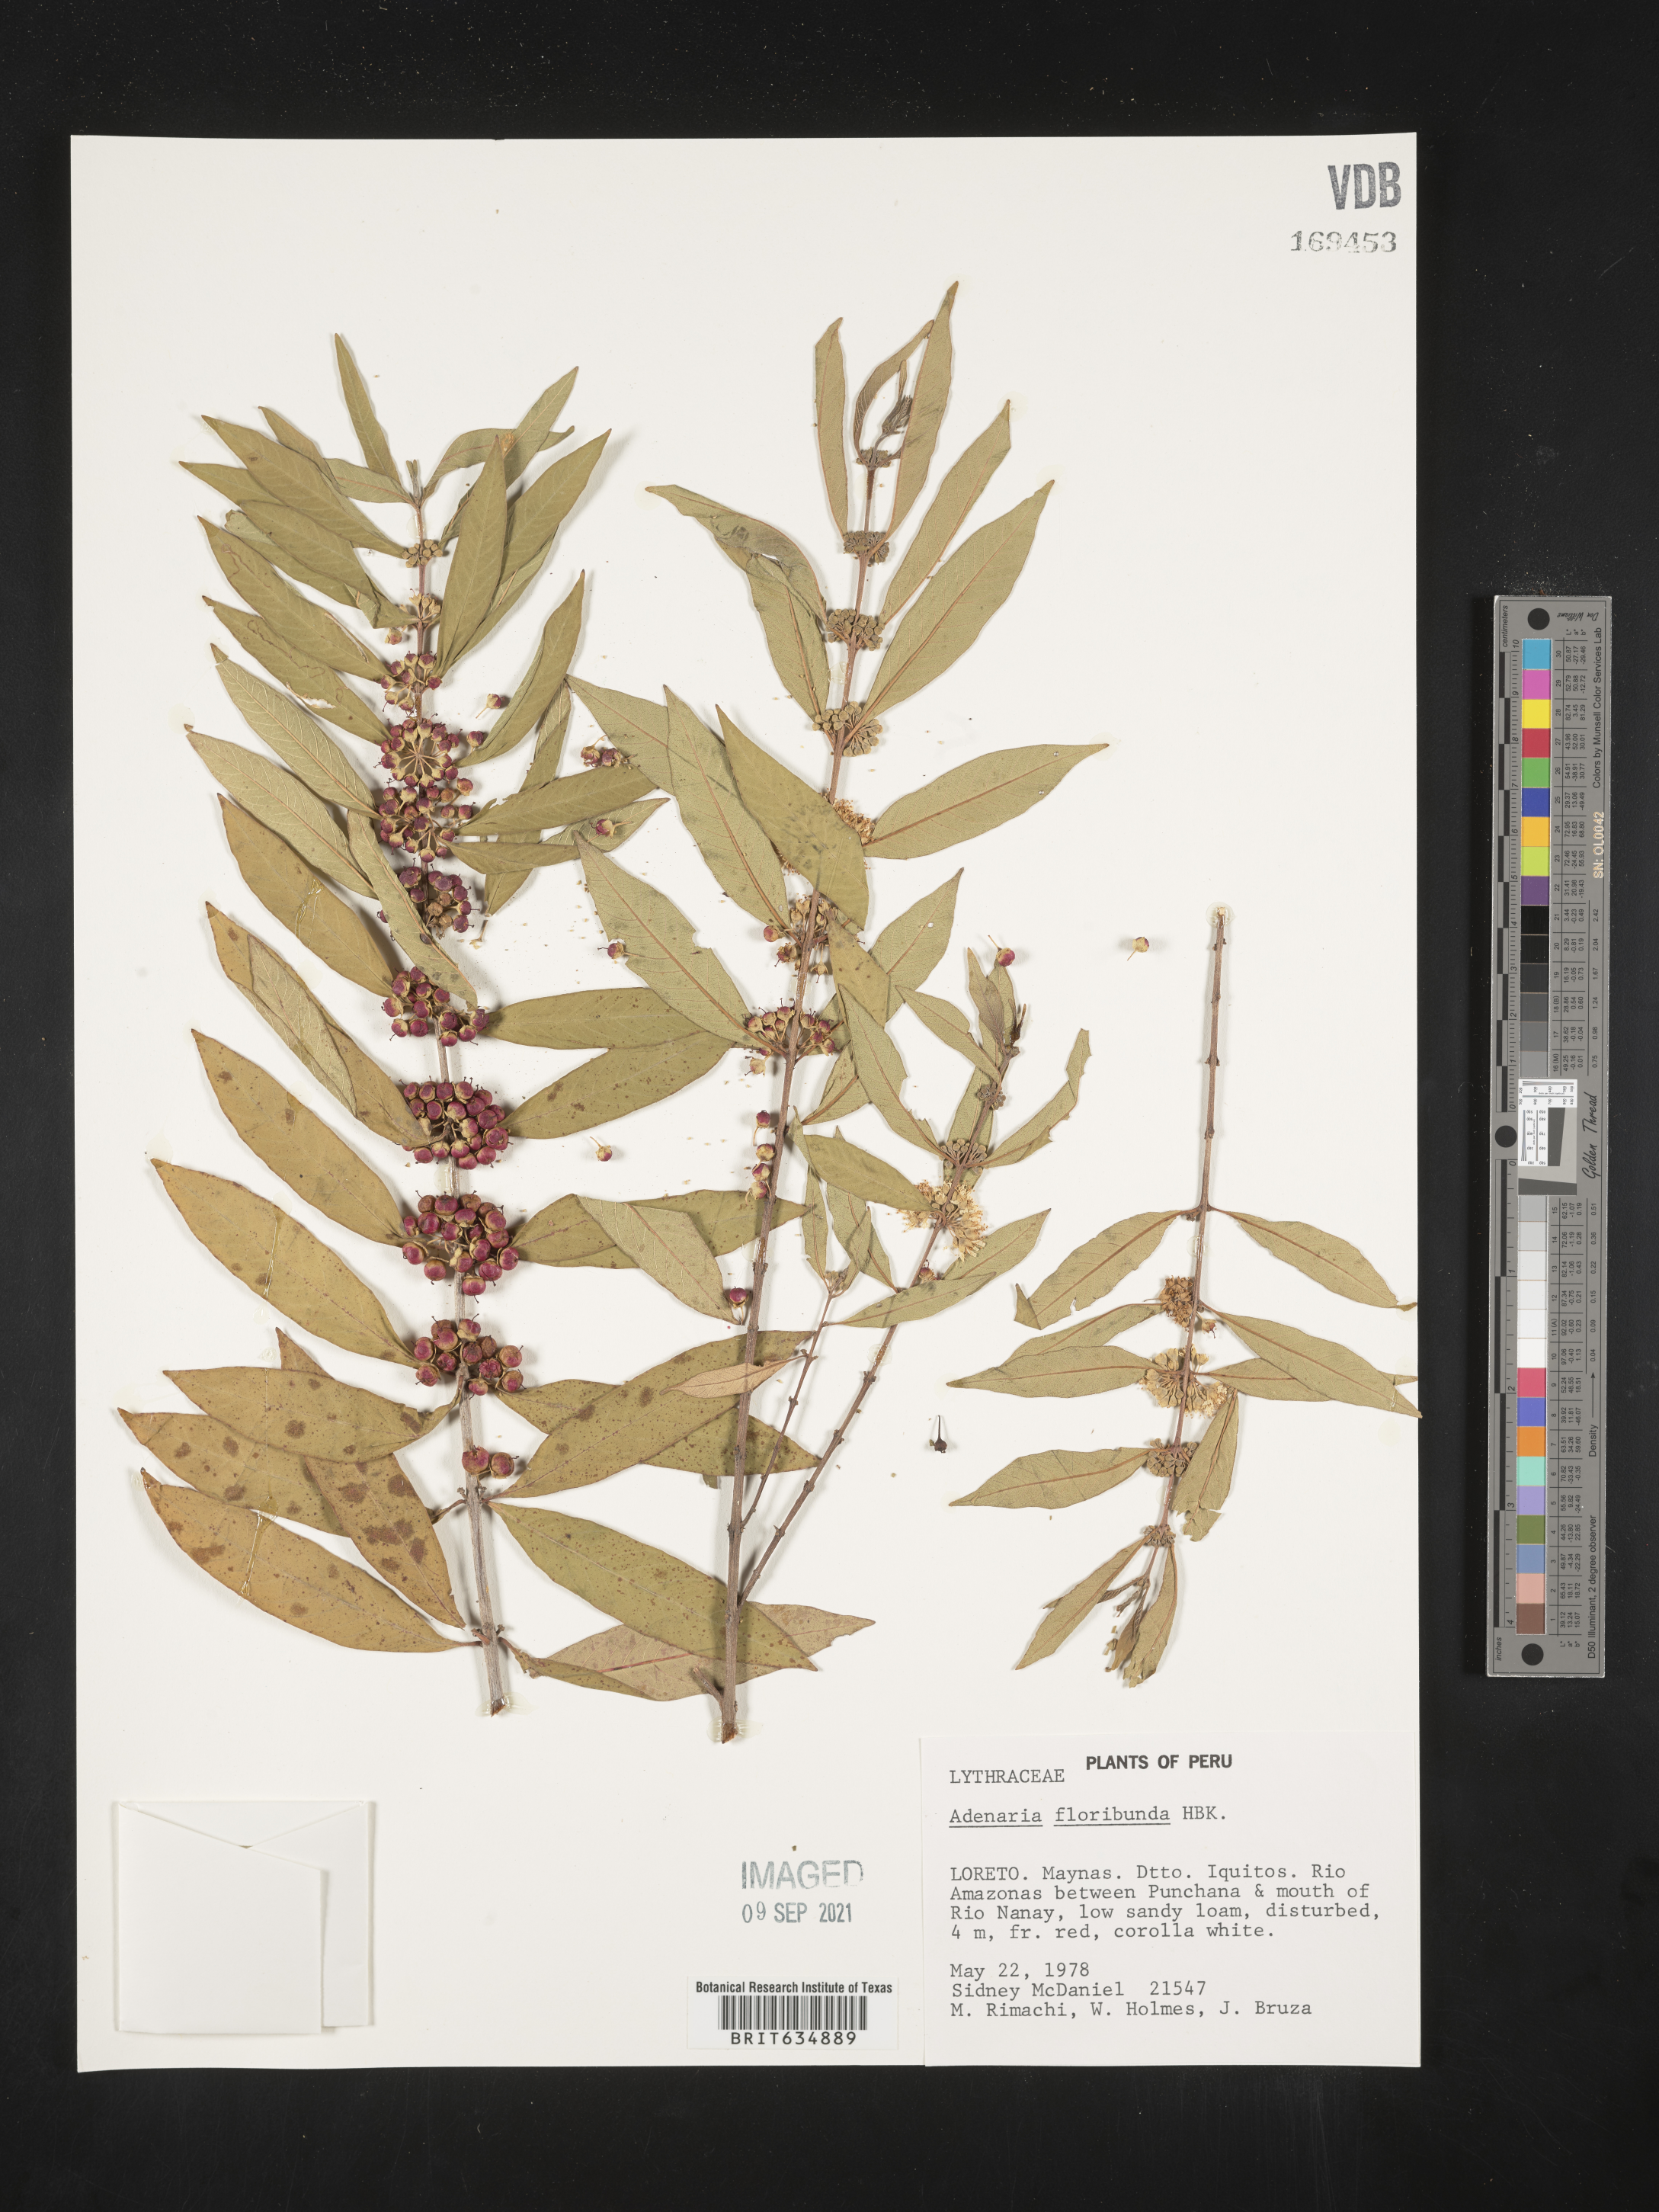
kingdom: Plantae
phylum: Tracheophyta
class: Magnoliopsida
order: Myrtales
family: Lythraceae
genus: Adenaria
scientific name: Adenaria
